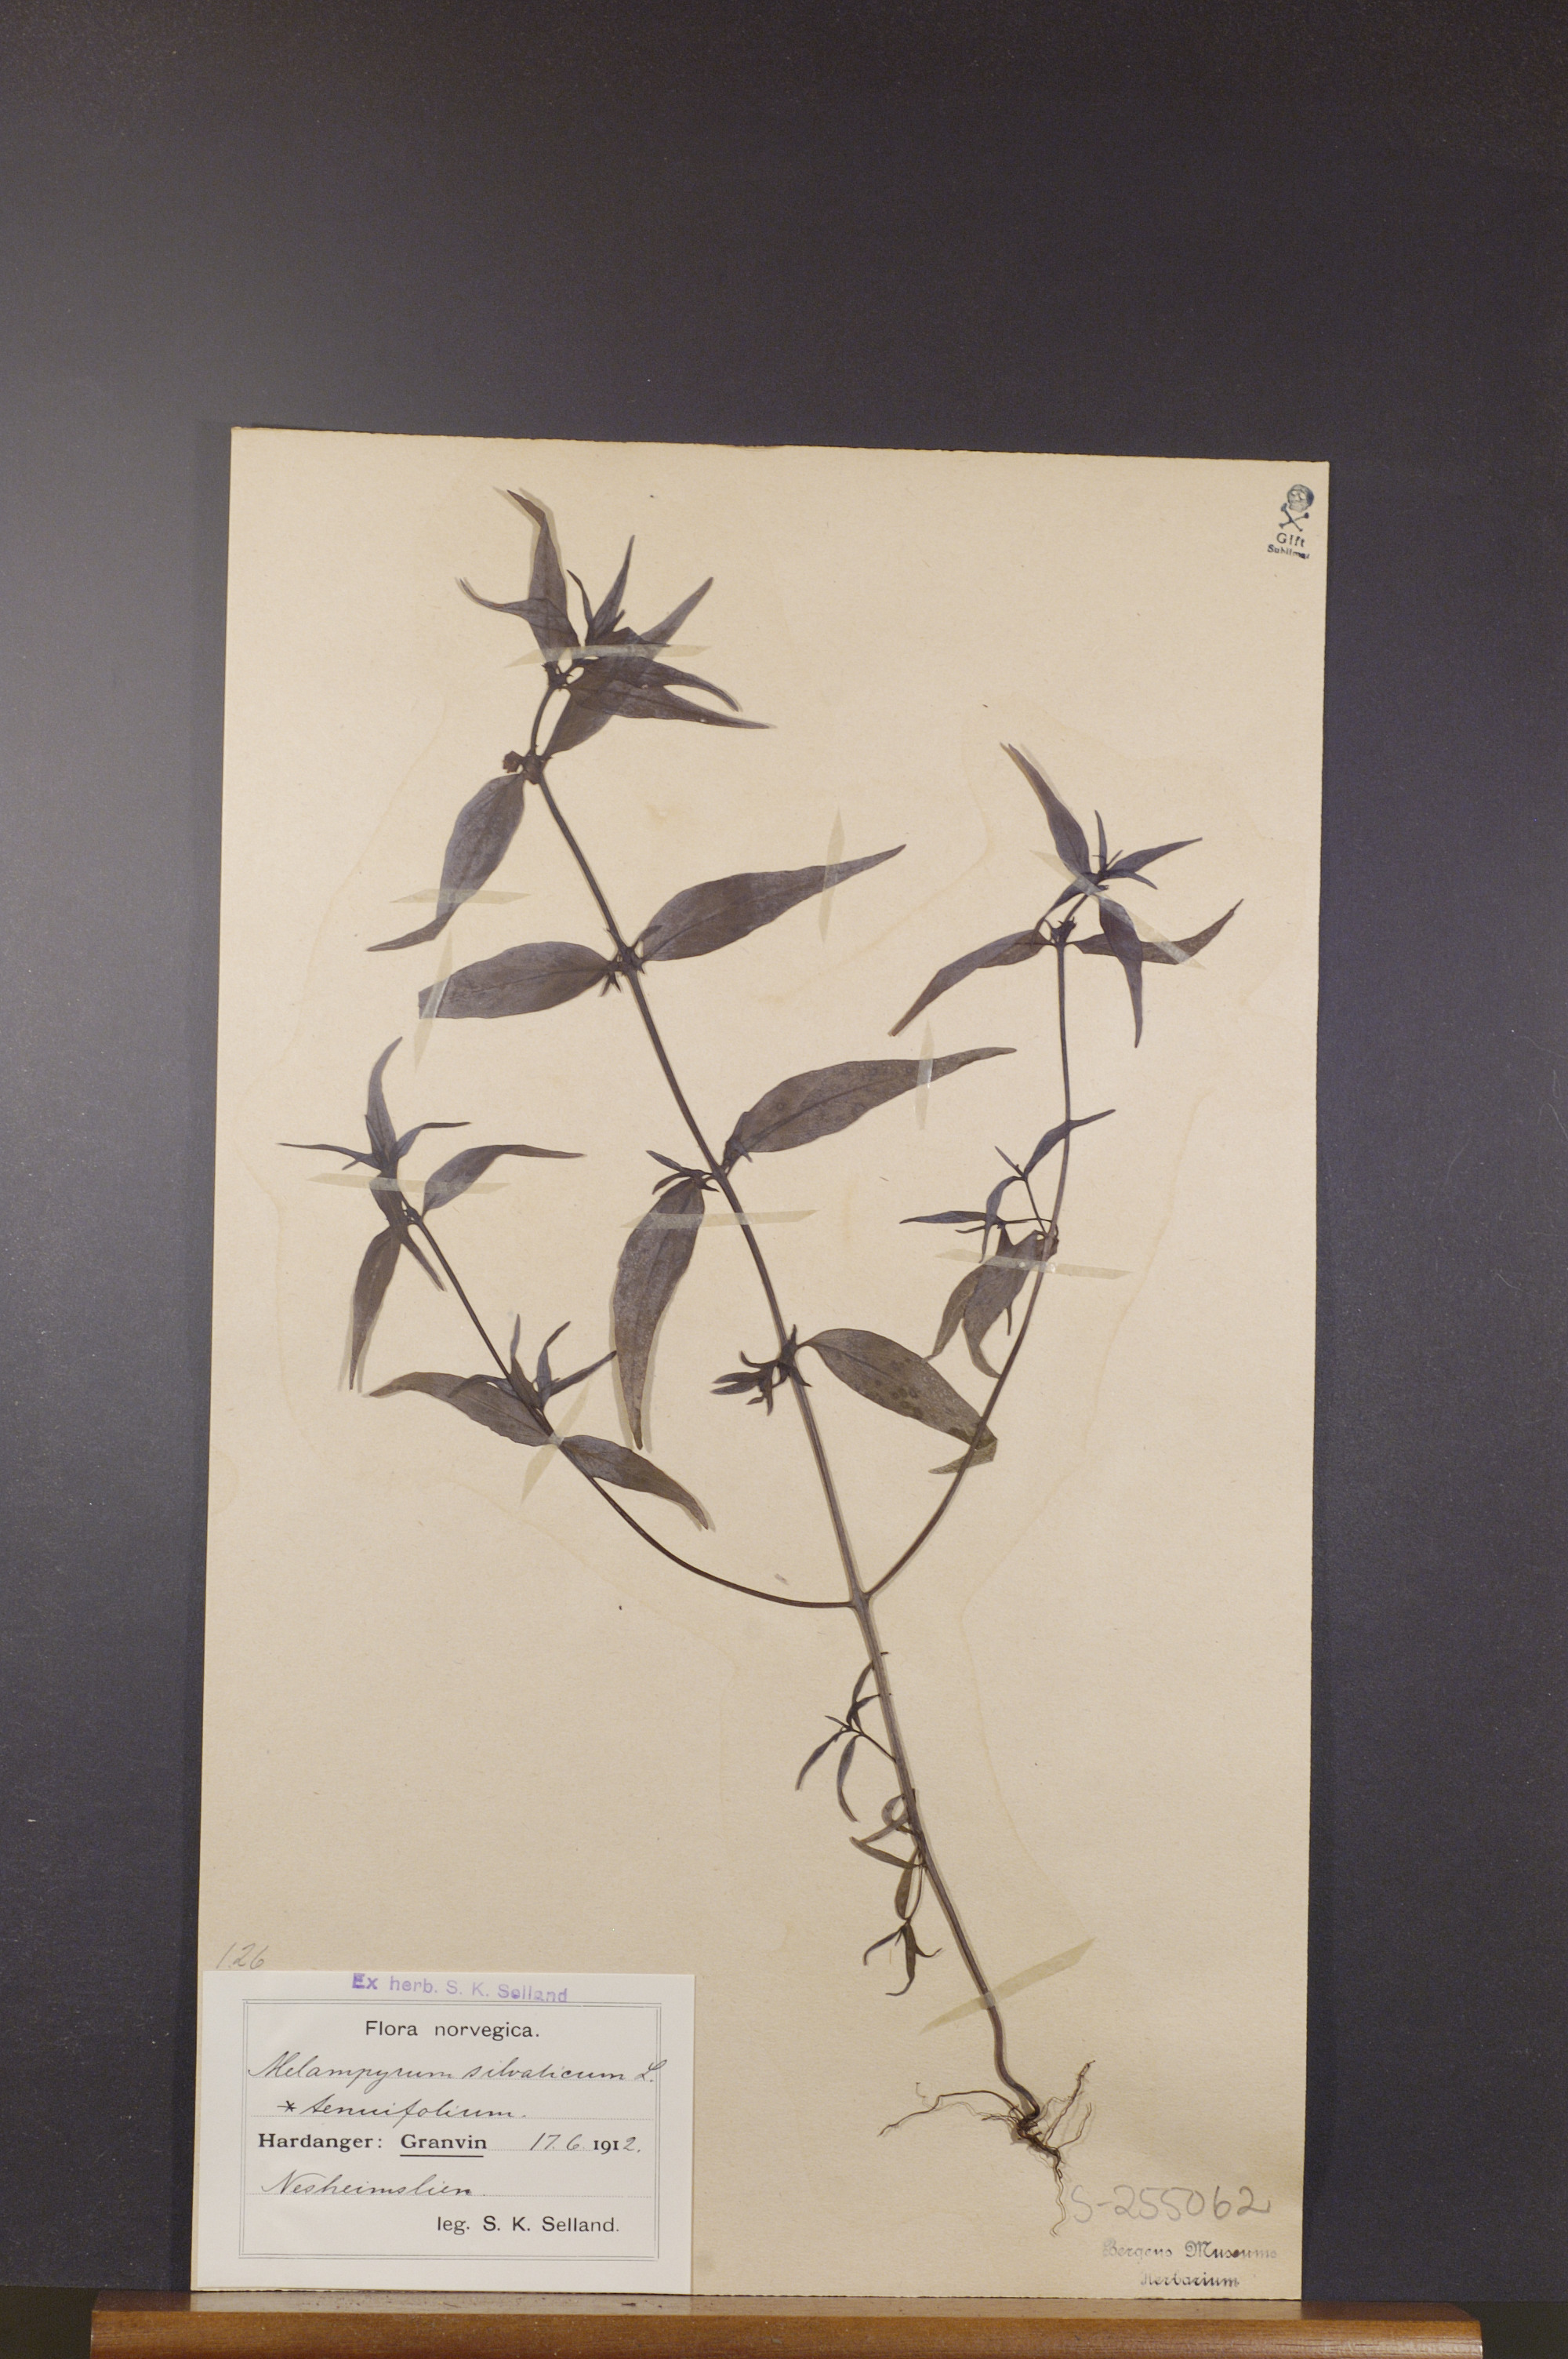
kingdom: Plantae
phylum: Tracheophyta
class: Magnoliopsida
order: Lamiales
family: Orobanchaceae
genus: Melampyrum
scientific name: Melampyrum sylvaticum
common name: Small cow-wheat
